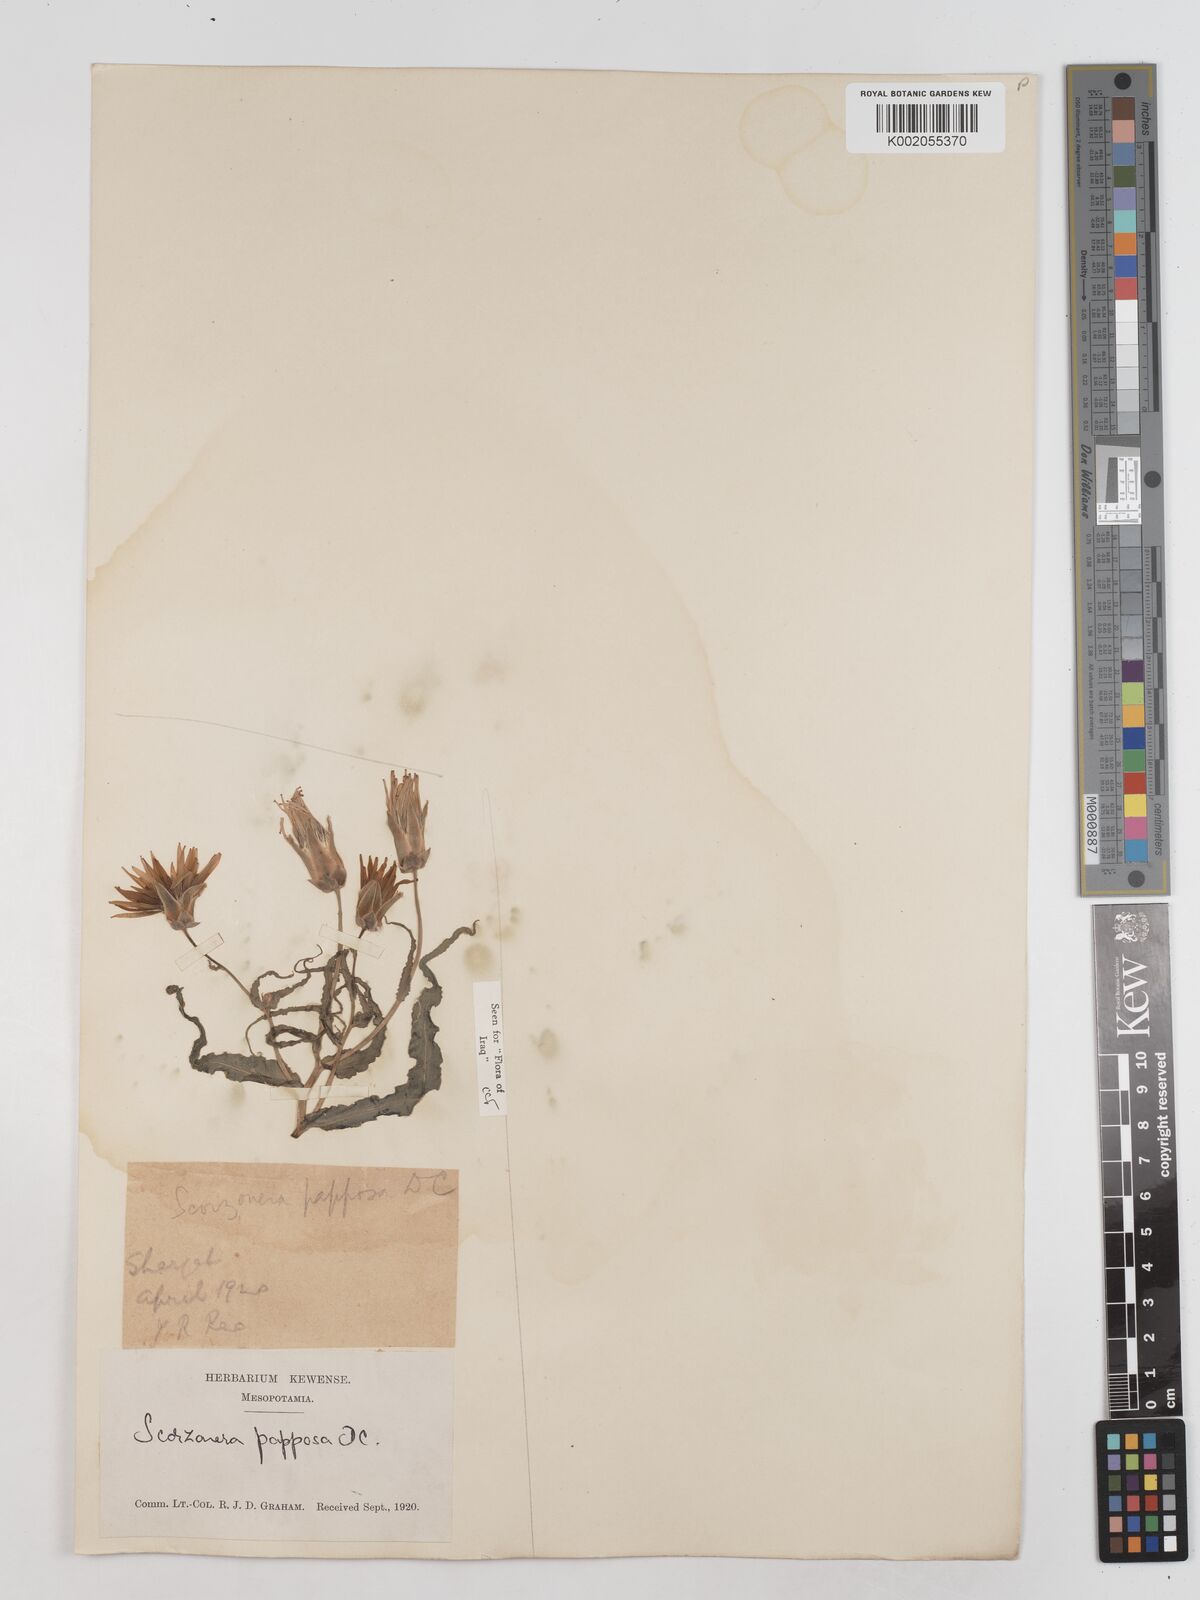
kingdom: Plantae
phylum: Tracheophyta
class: Magnoliopsida
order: Asterales
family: Asteraceae
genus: Pseudopodospermum
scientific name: Pseudopodospermum papposum
